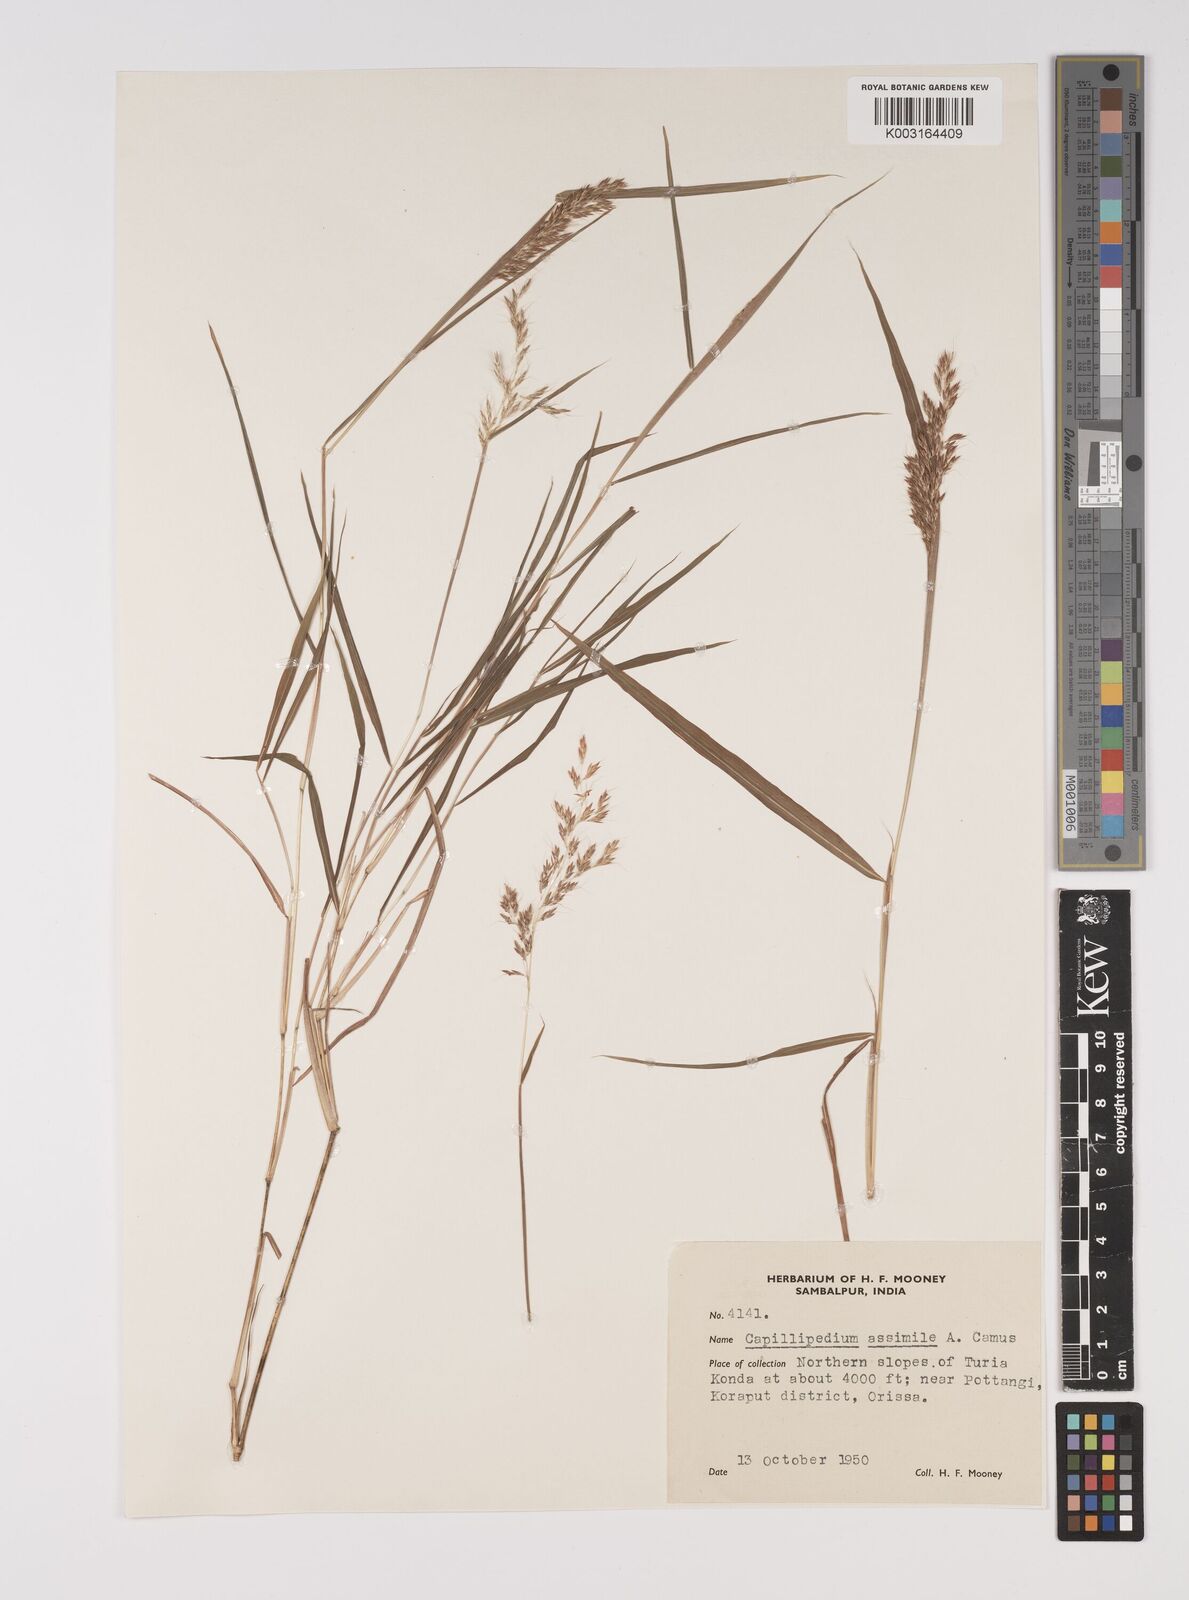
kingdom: Plantae
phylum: Tracheophyta
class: Liliopsida
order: Poales
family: Poaceae
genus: Capillipedium
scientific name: Capillipedium assimile
